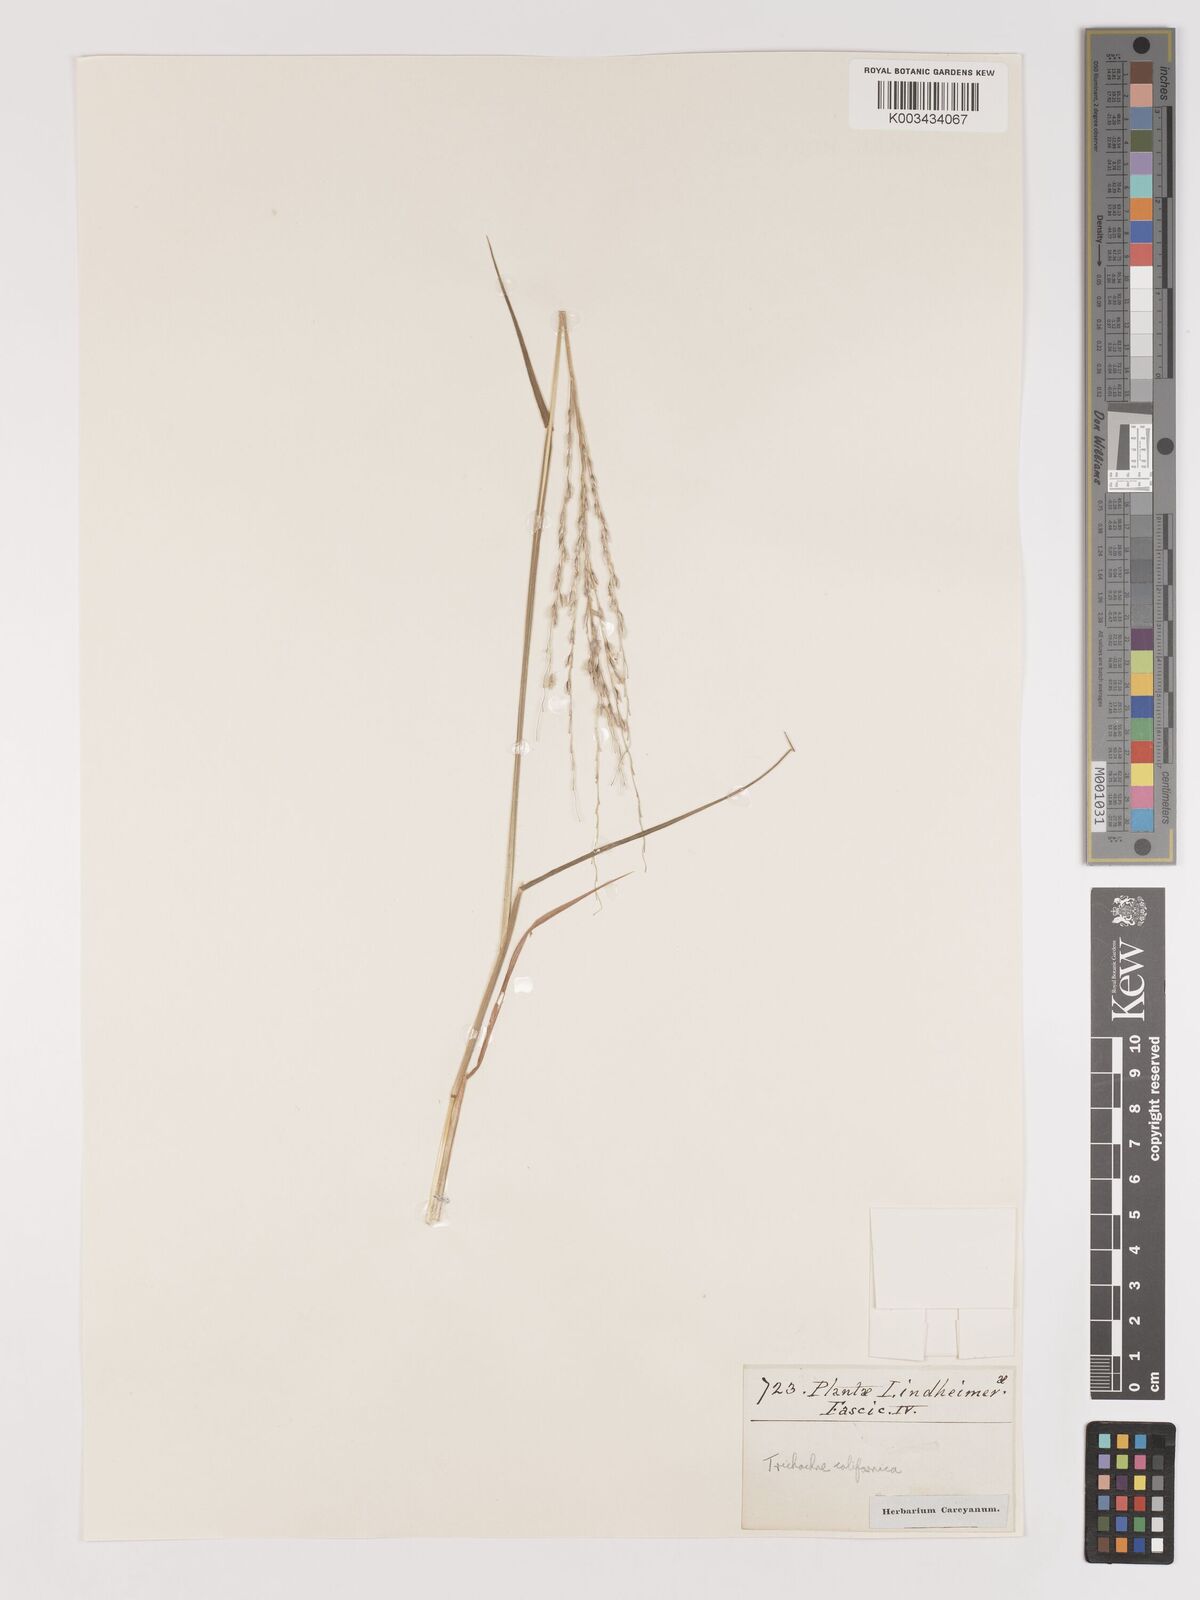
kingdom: Plantae
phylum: Tracheophyta
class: Liliopsida
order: Poales
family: Poaceae
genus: Digitaria
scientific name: Digitaria californica
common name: Arizona cottontop
